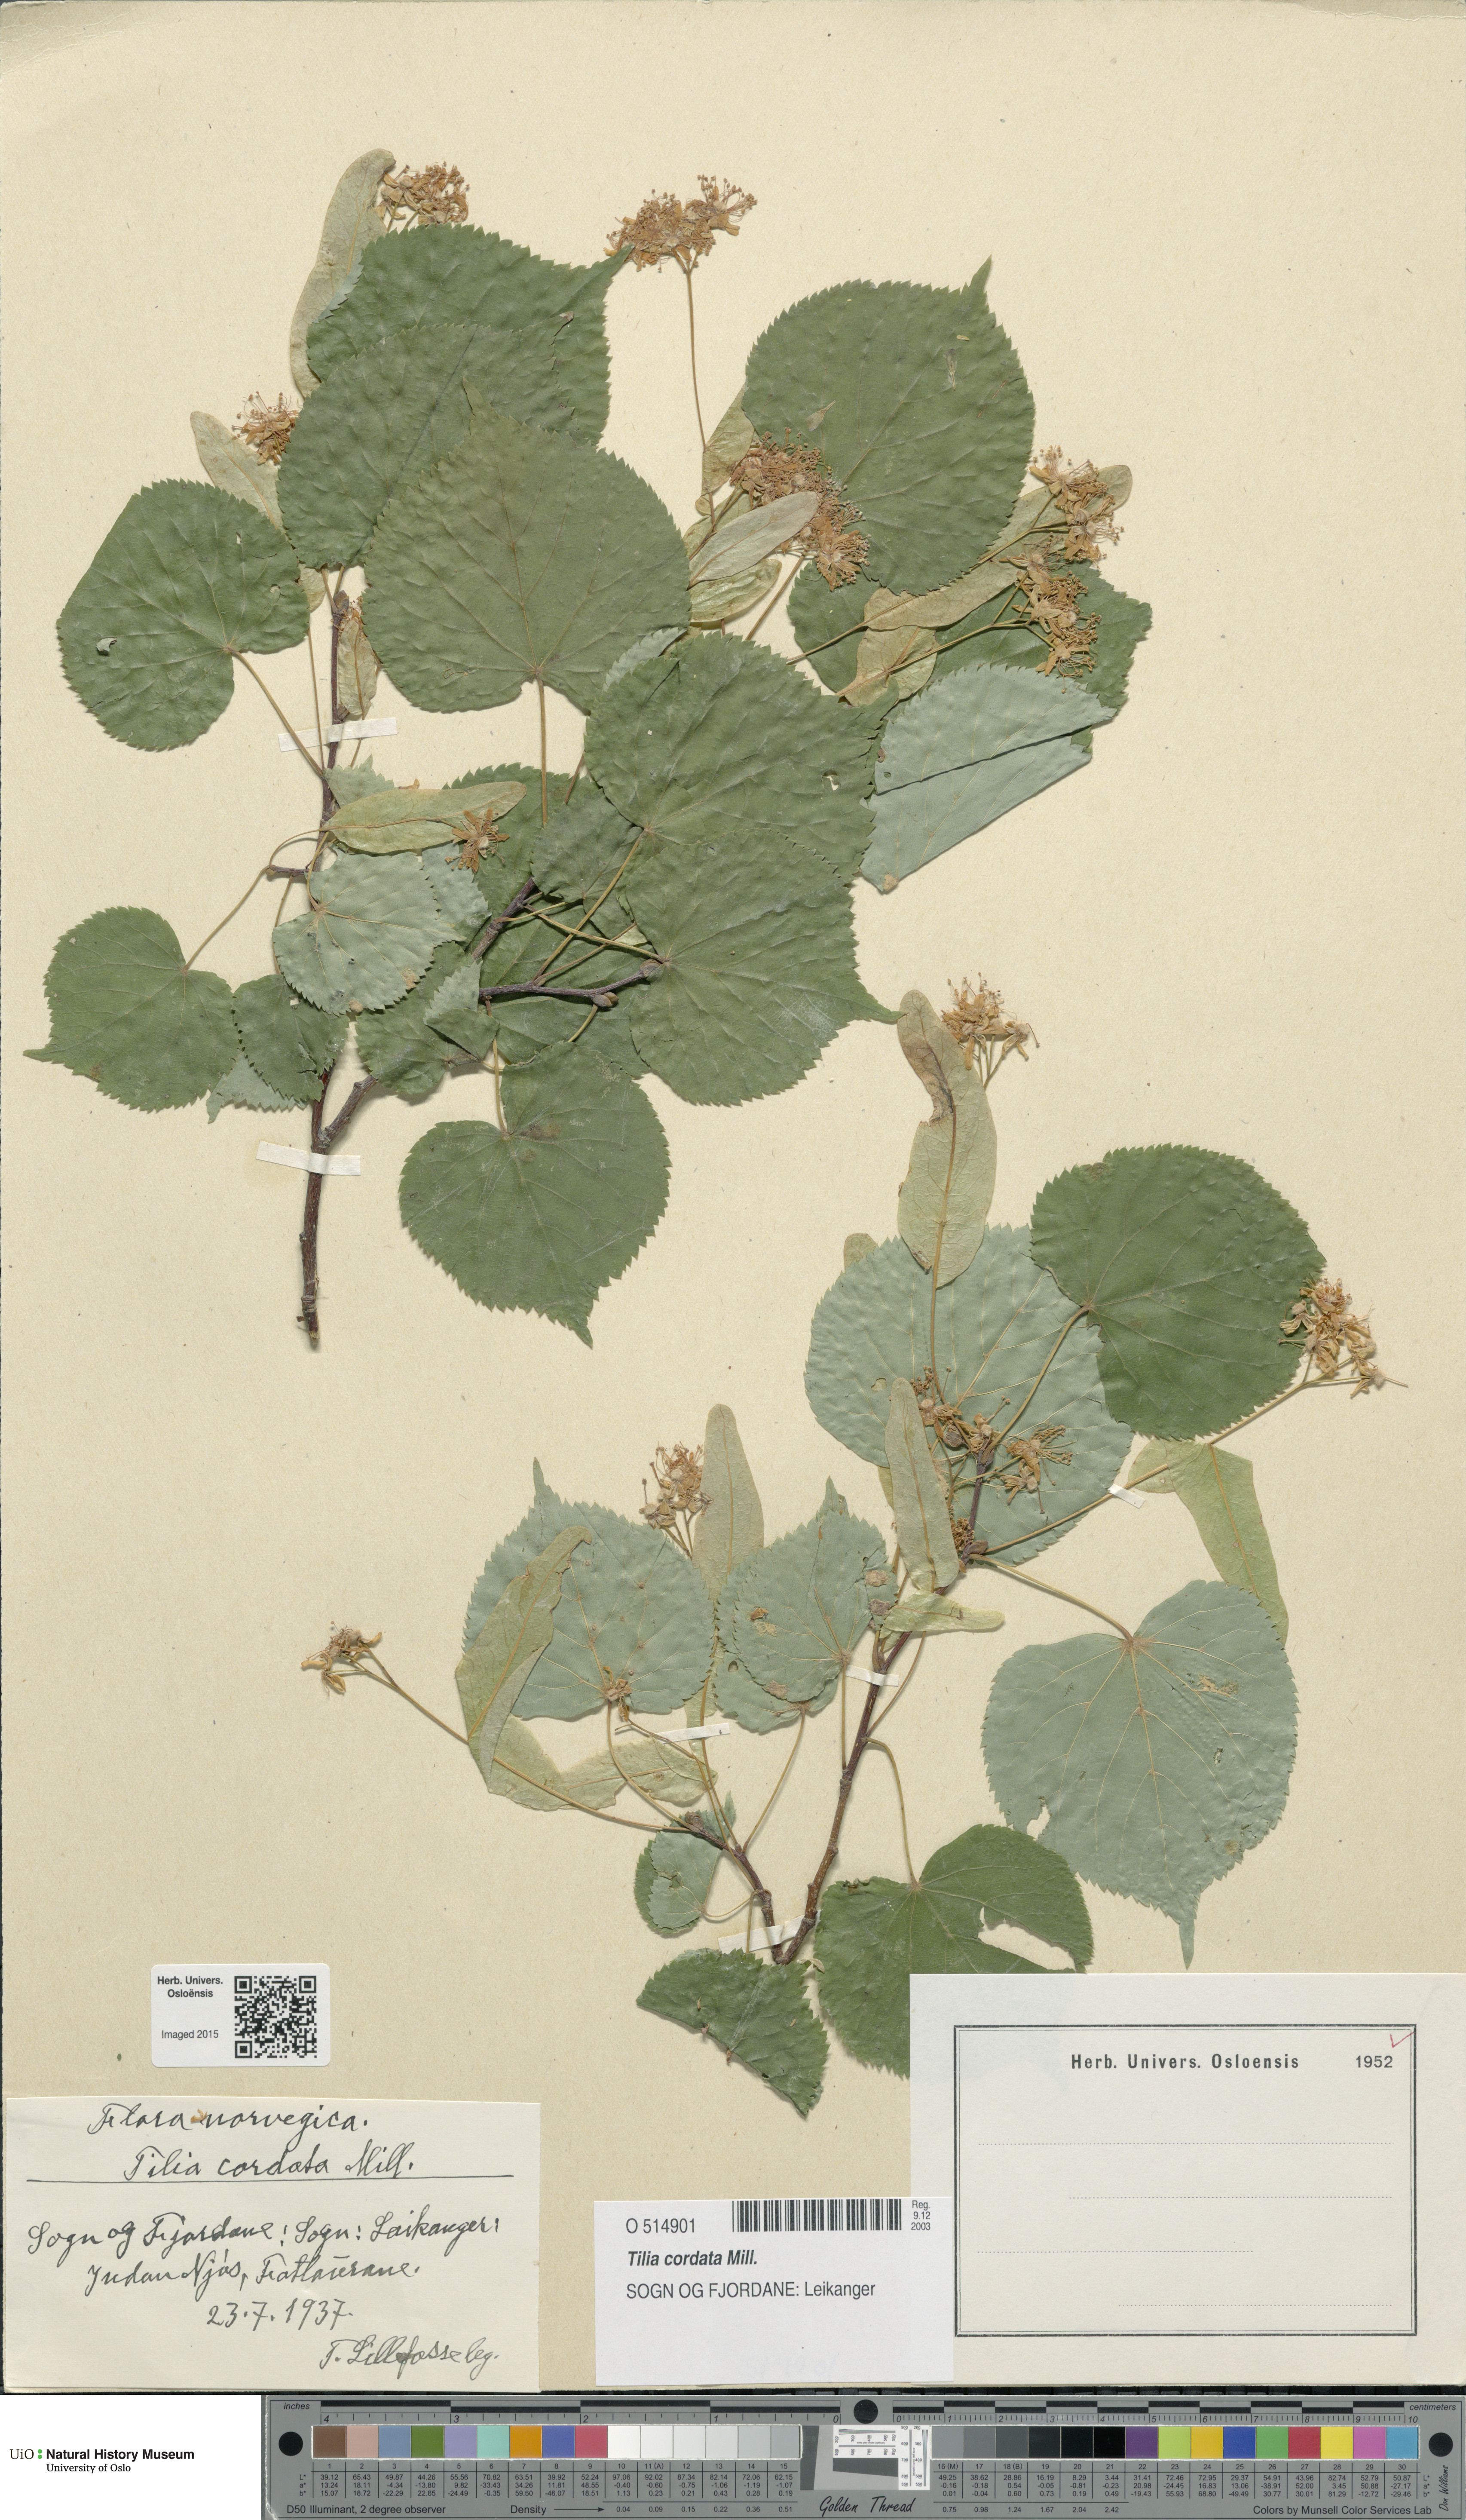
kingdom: Plantae
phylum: Tracheophyta
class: Magnoliopsida
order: Malvales
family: Malvaceae
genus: Tilia
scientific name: Tilia cordata
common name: Small-leaved lime
